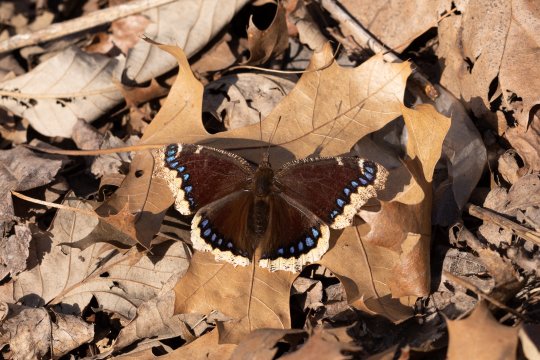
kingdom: Animalia
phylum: Arthropoda
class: Insecta
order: Lepidoptera
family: Nymphalidae
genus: Nymphalis
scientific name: Nymphalis antiopa
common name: Mourning Cloak
